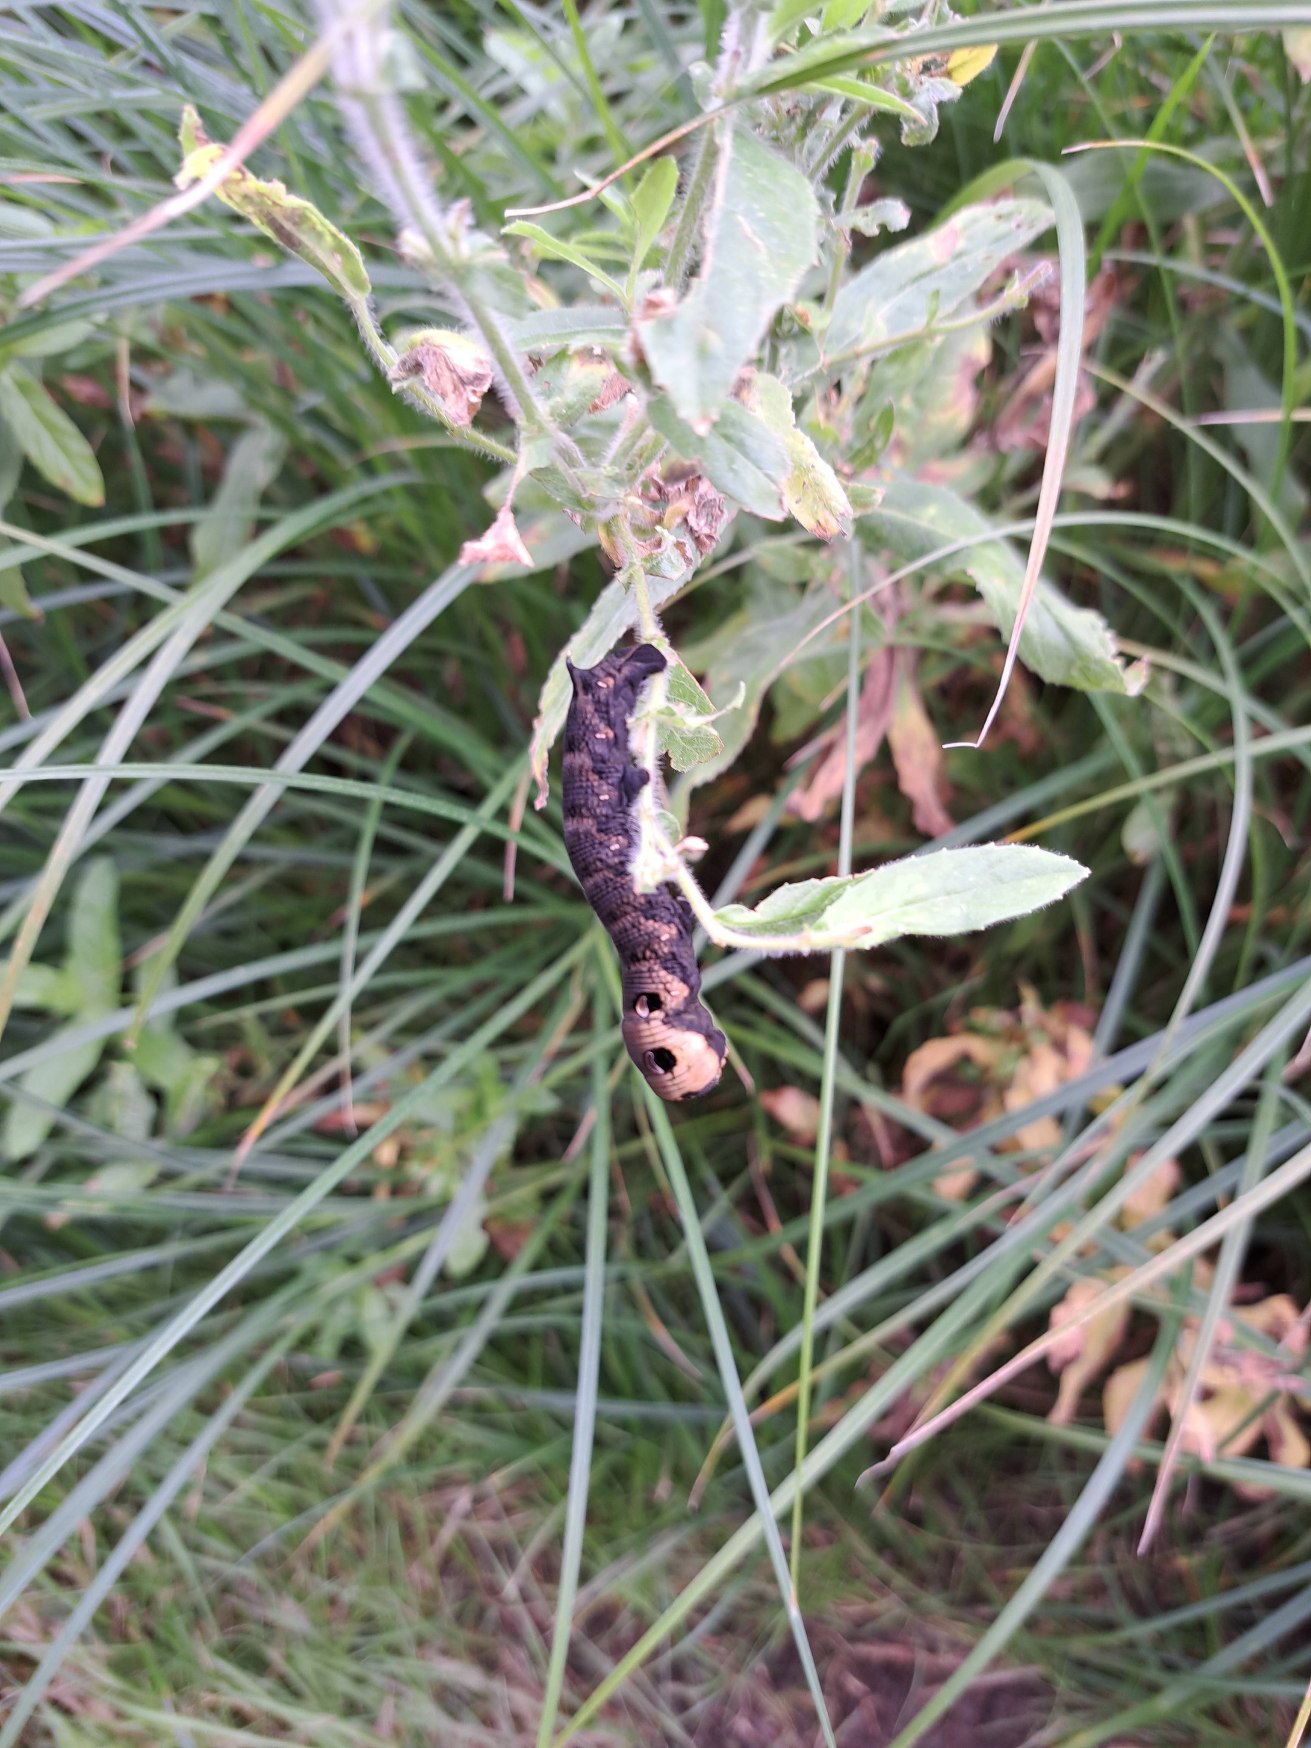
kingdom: Animalia
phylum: Arthropoda
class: Insecta
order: Lepidoptera
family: Sphingidae
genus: Deilephila
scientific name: Deilephila elpenor
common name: Dueurtsværmer
